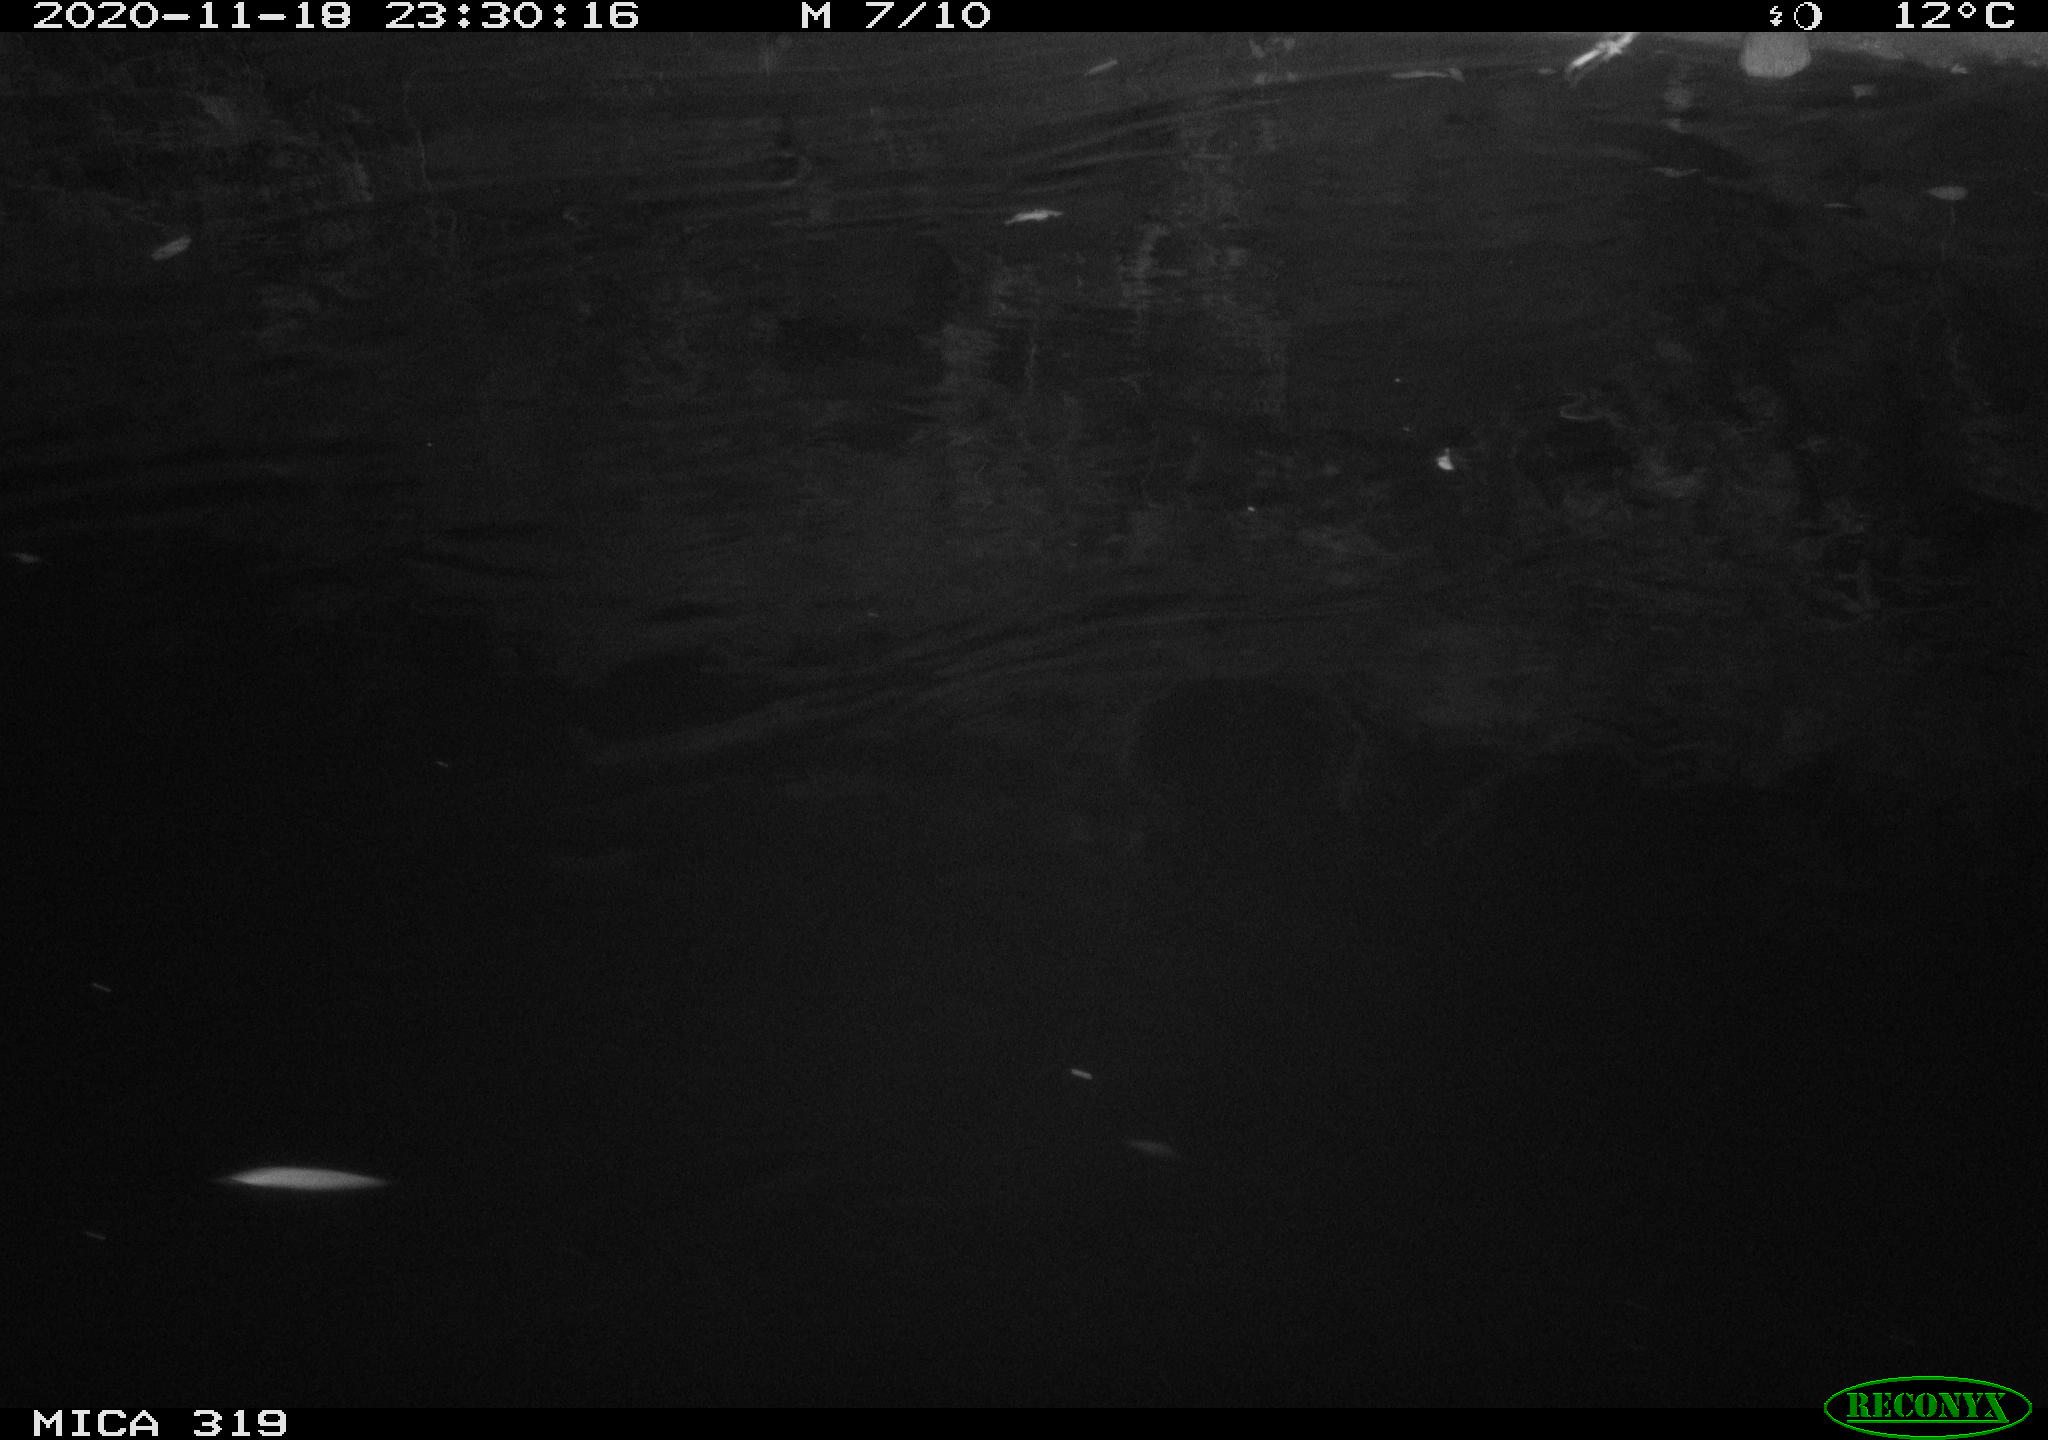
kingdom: Animalia
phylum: Chordata
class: Mammalia
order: Rodentia
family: Muridae
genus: Rattus
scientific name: Rattus norvegicus
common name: Brown rat
